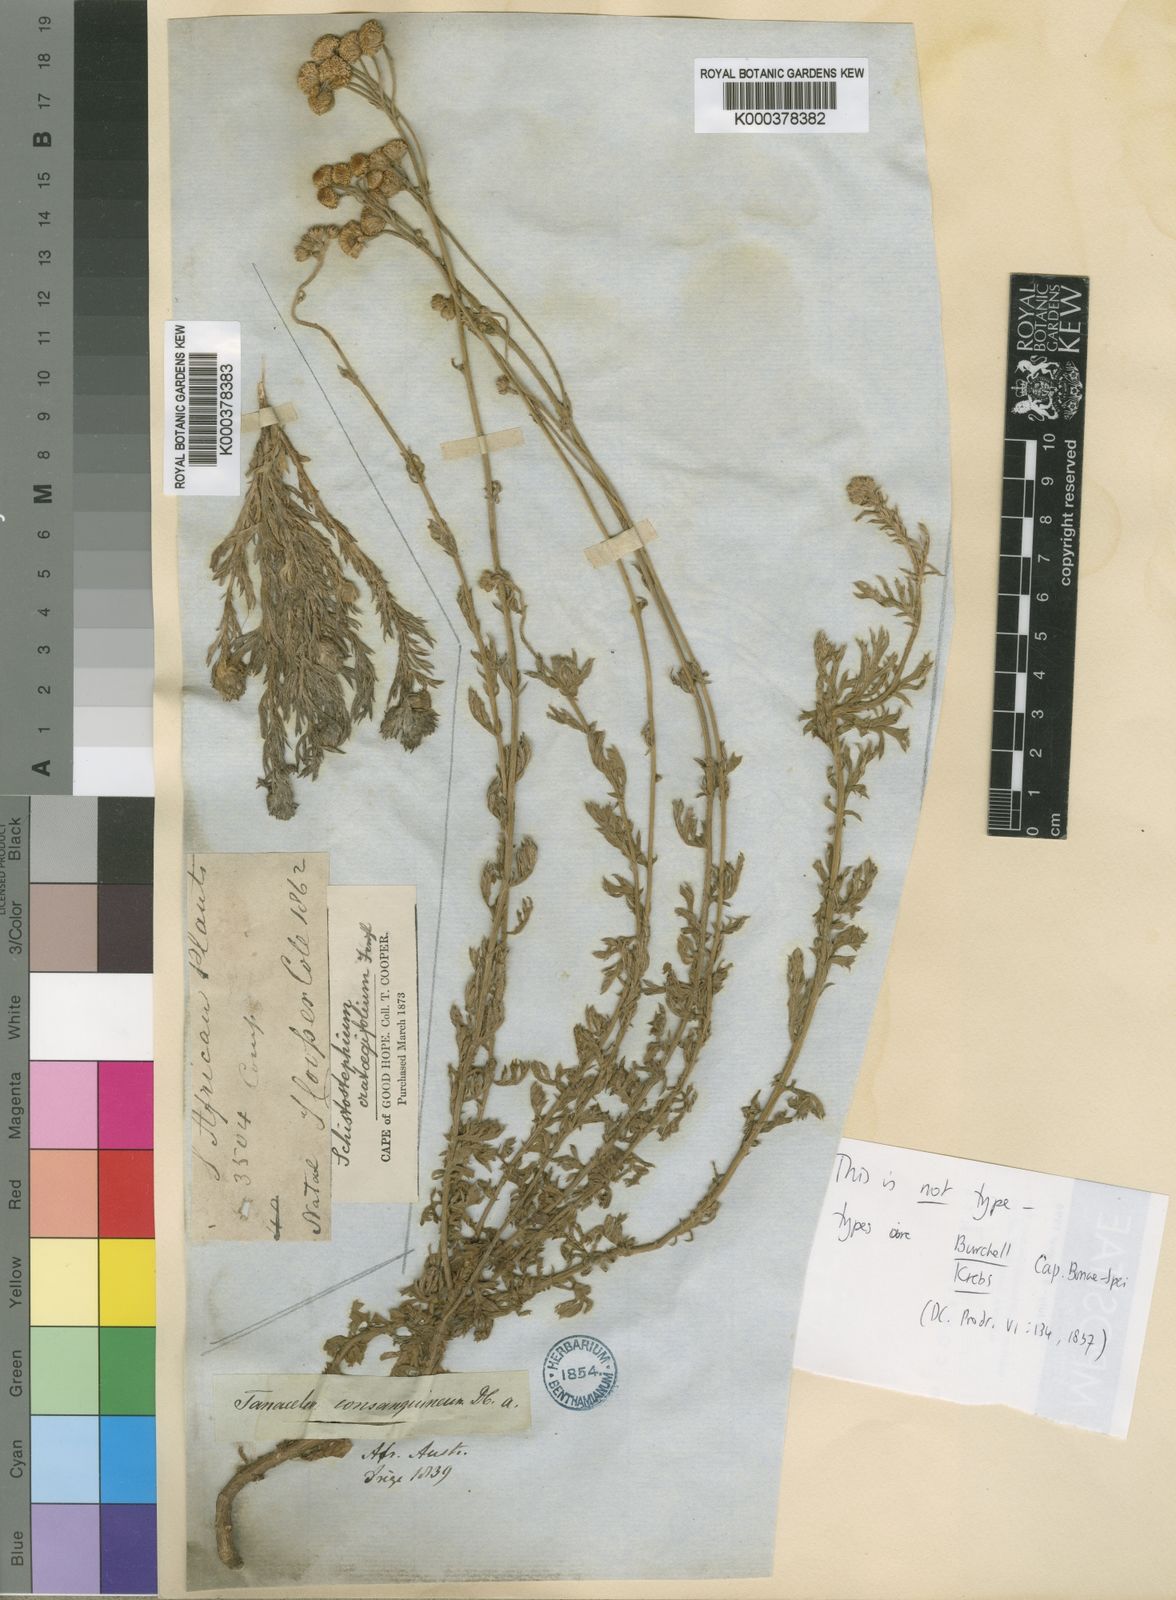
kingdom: Plantae
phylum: Tracheophyta
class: Magnoliopsida
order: Asterales
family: Asteraceae
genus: Schistostephium
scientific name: Schistostephium crataegifolium
